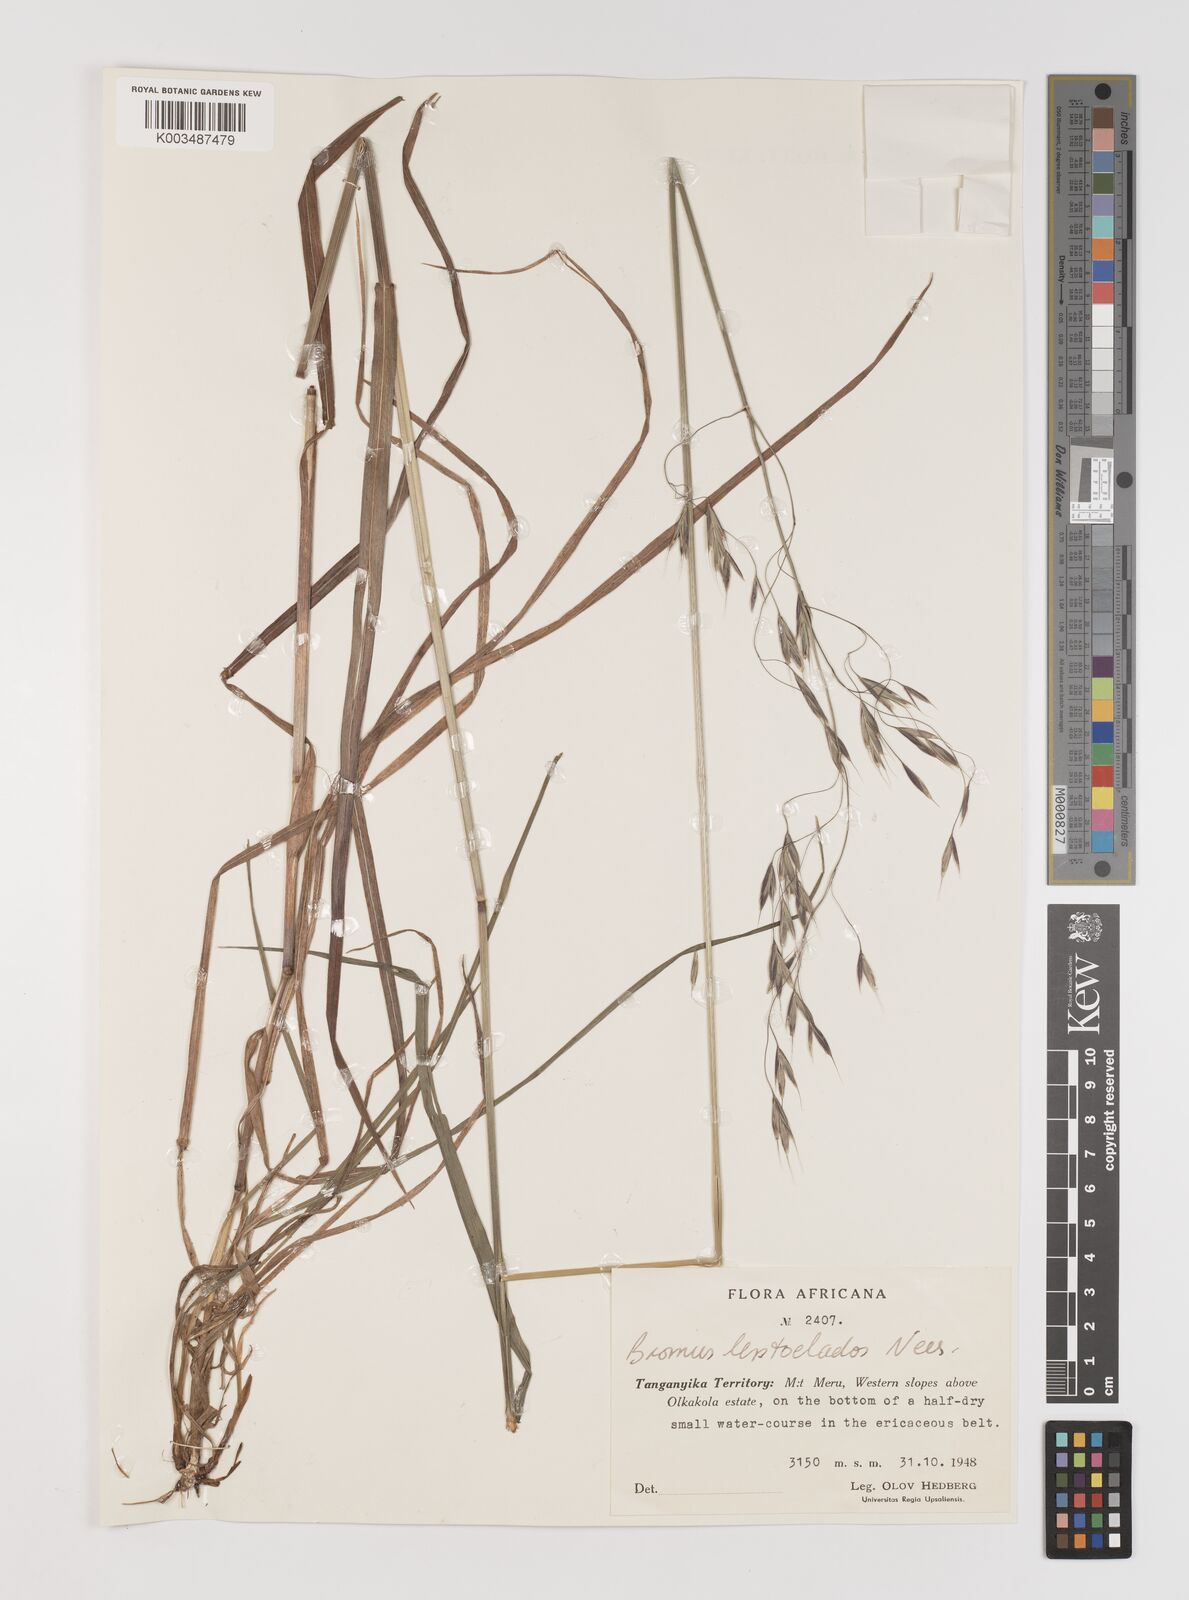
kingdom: Plantae
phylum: Tracheophyta
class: Liliopsida
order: Poales
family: Poaceae
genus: Bromus
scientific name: Bromus leptoclados
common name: Mountain bromegrass
